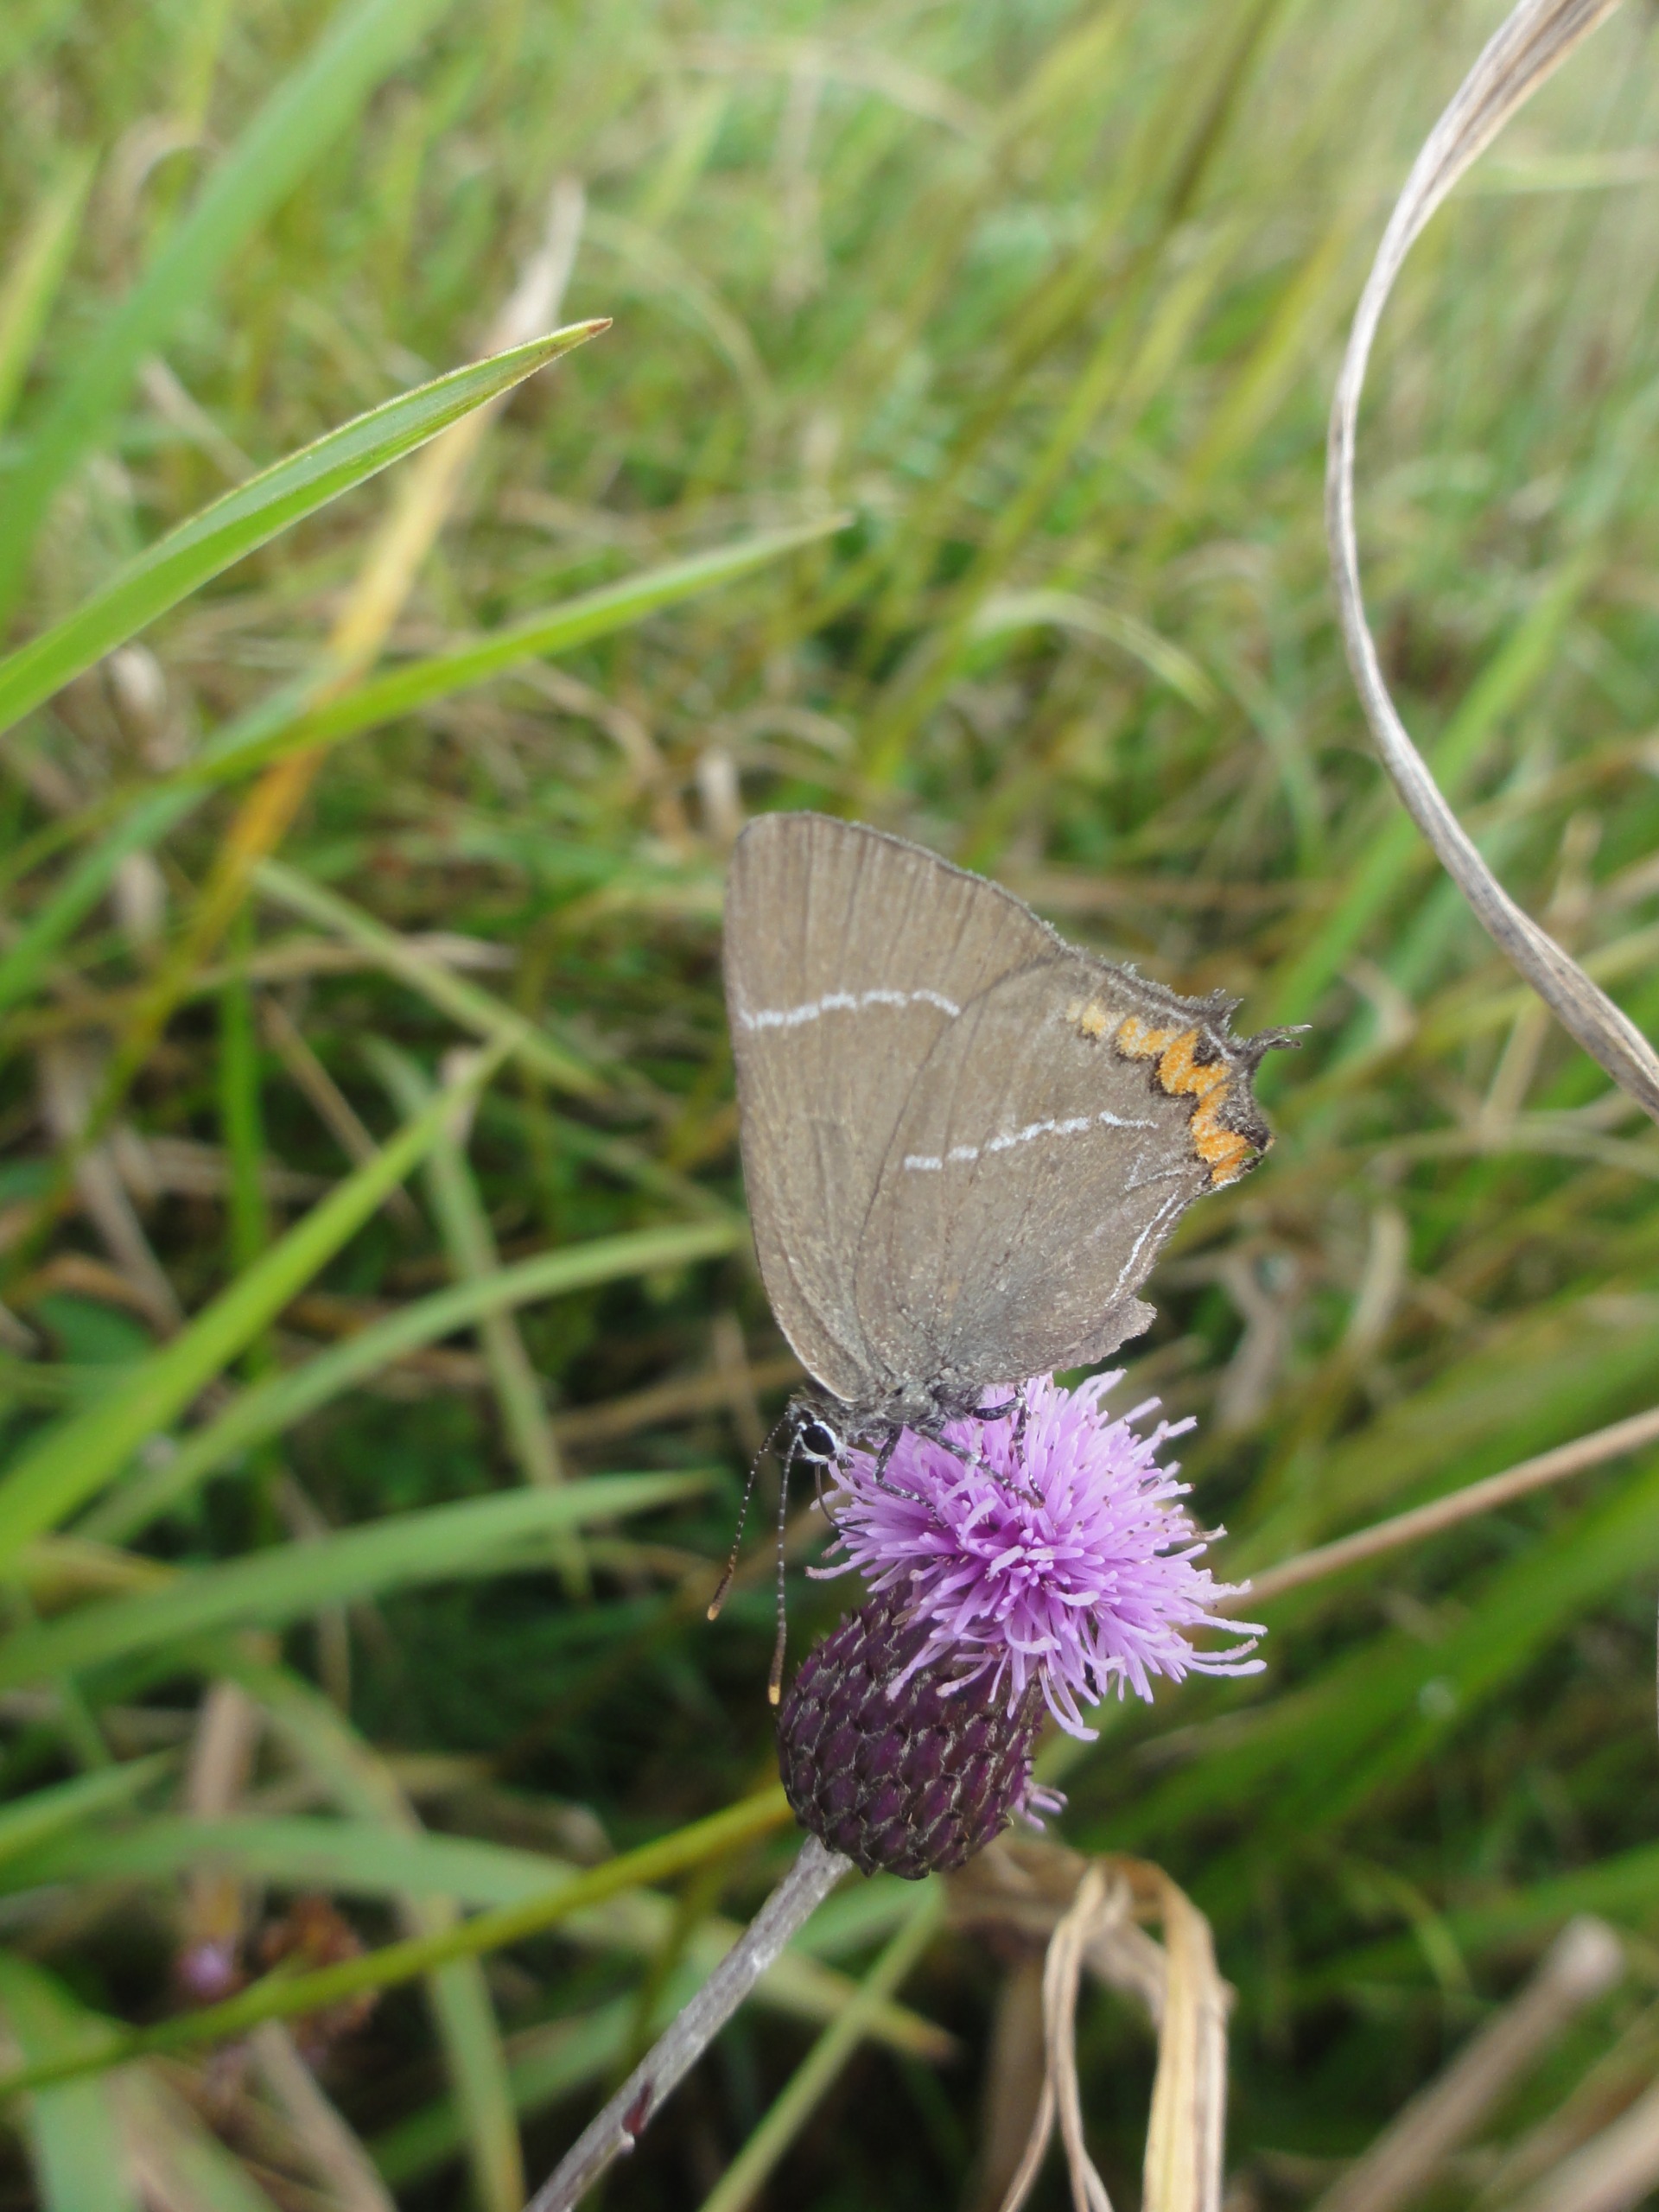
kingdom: Animalia
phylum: Arthropoda
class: Insecta
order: Lepidoptera
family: Lycaenidae
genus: Satyrium
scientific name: Satyrium w-album
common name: Det hvide W
